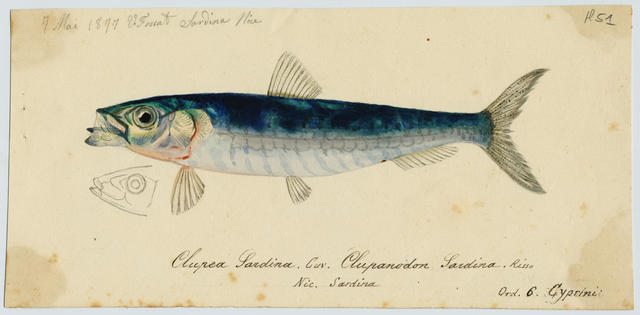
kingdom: Animalia
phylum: Chordata
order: Clupeiformes
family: Clupeidae
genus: Sardina
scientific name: Sardina pilchardus
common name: Pilchard
